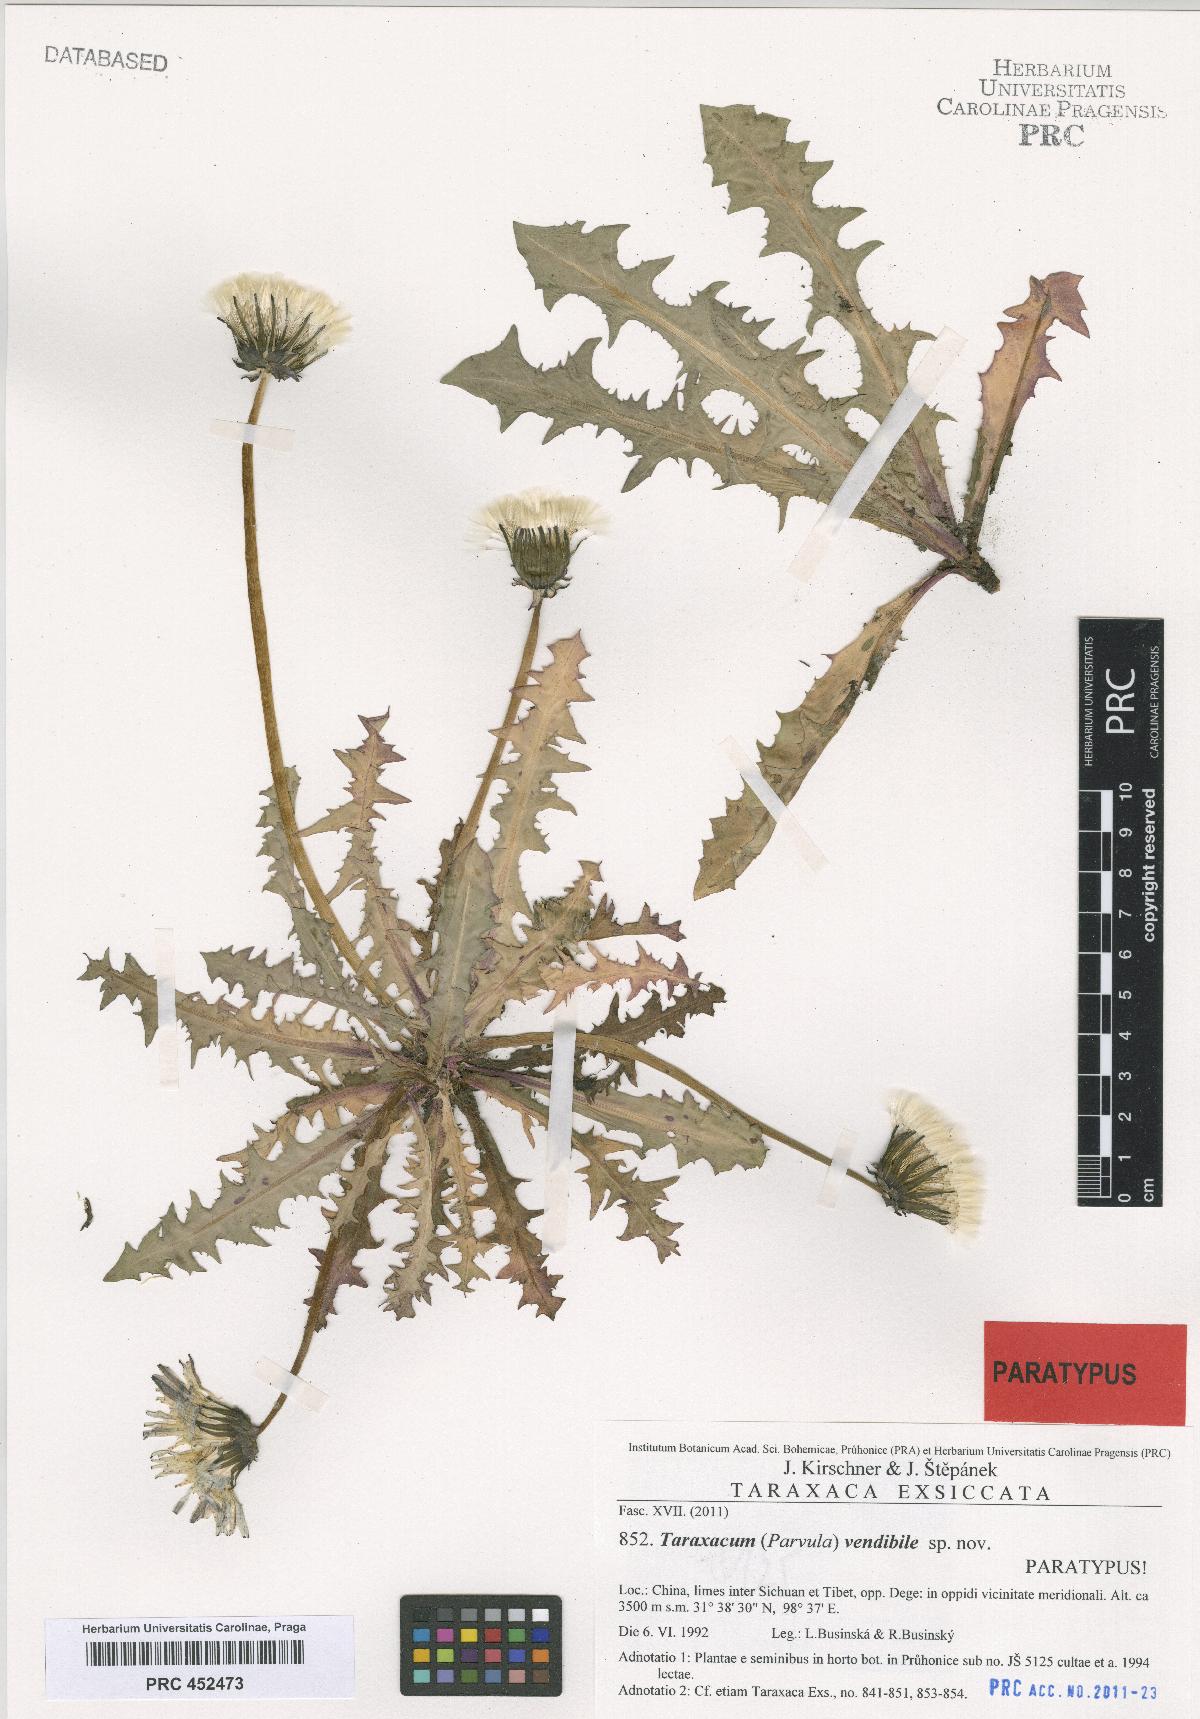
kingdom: Plantae
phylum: Tracheophyta
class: Magnoliopsida
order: Asterales
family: Asteraceae
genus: Taraxacum
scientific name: Taraxacum vendibile
